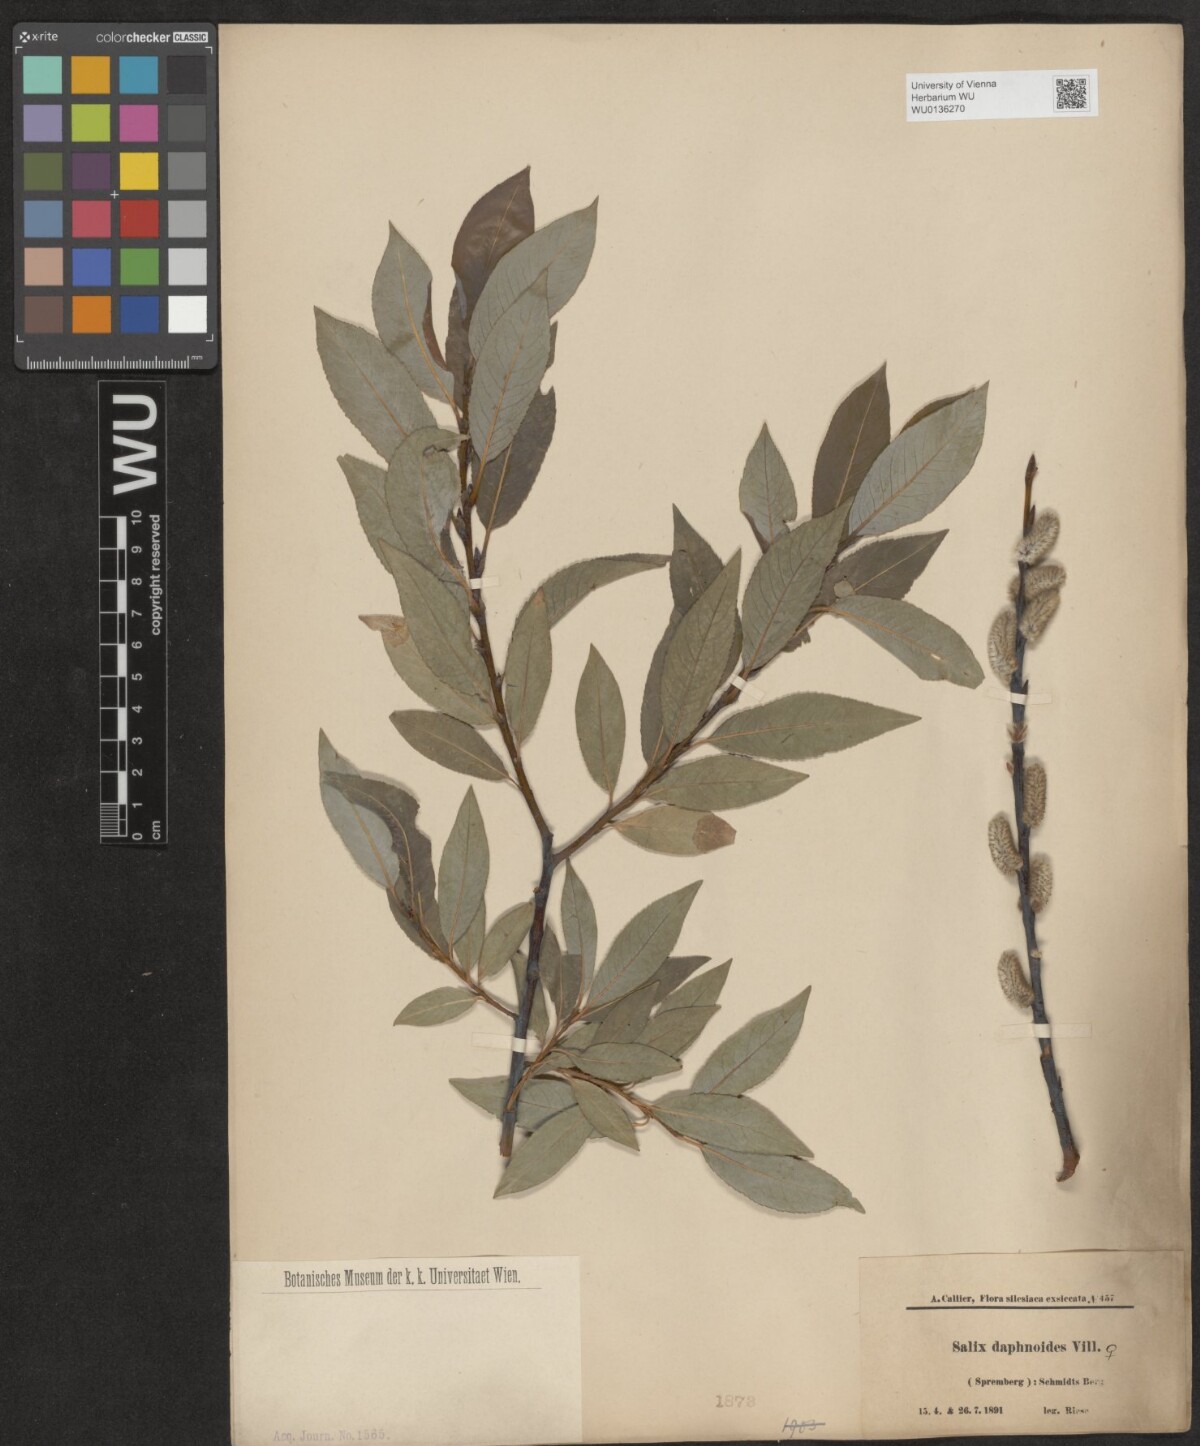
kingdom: Plantae
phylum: Tracheophyta
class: Magnoliopsida
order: Malpighiales
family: Salicaceae
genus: Salix
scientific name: Salix daphnoides
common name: European violet-willow
